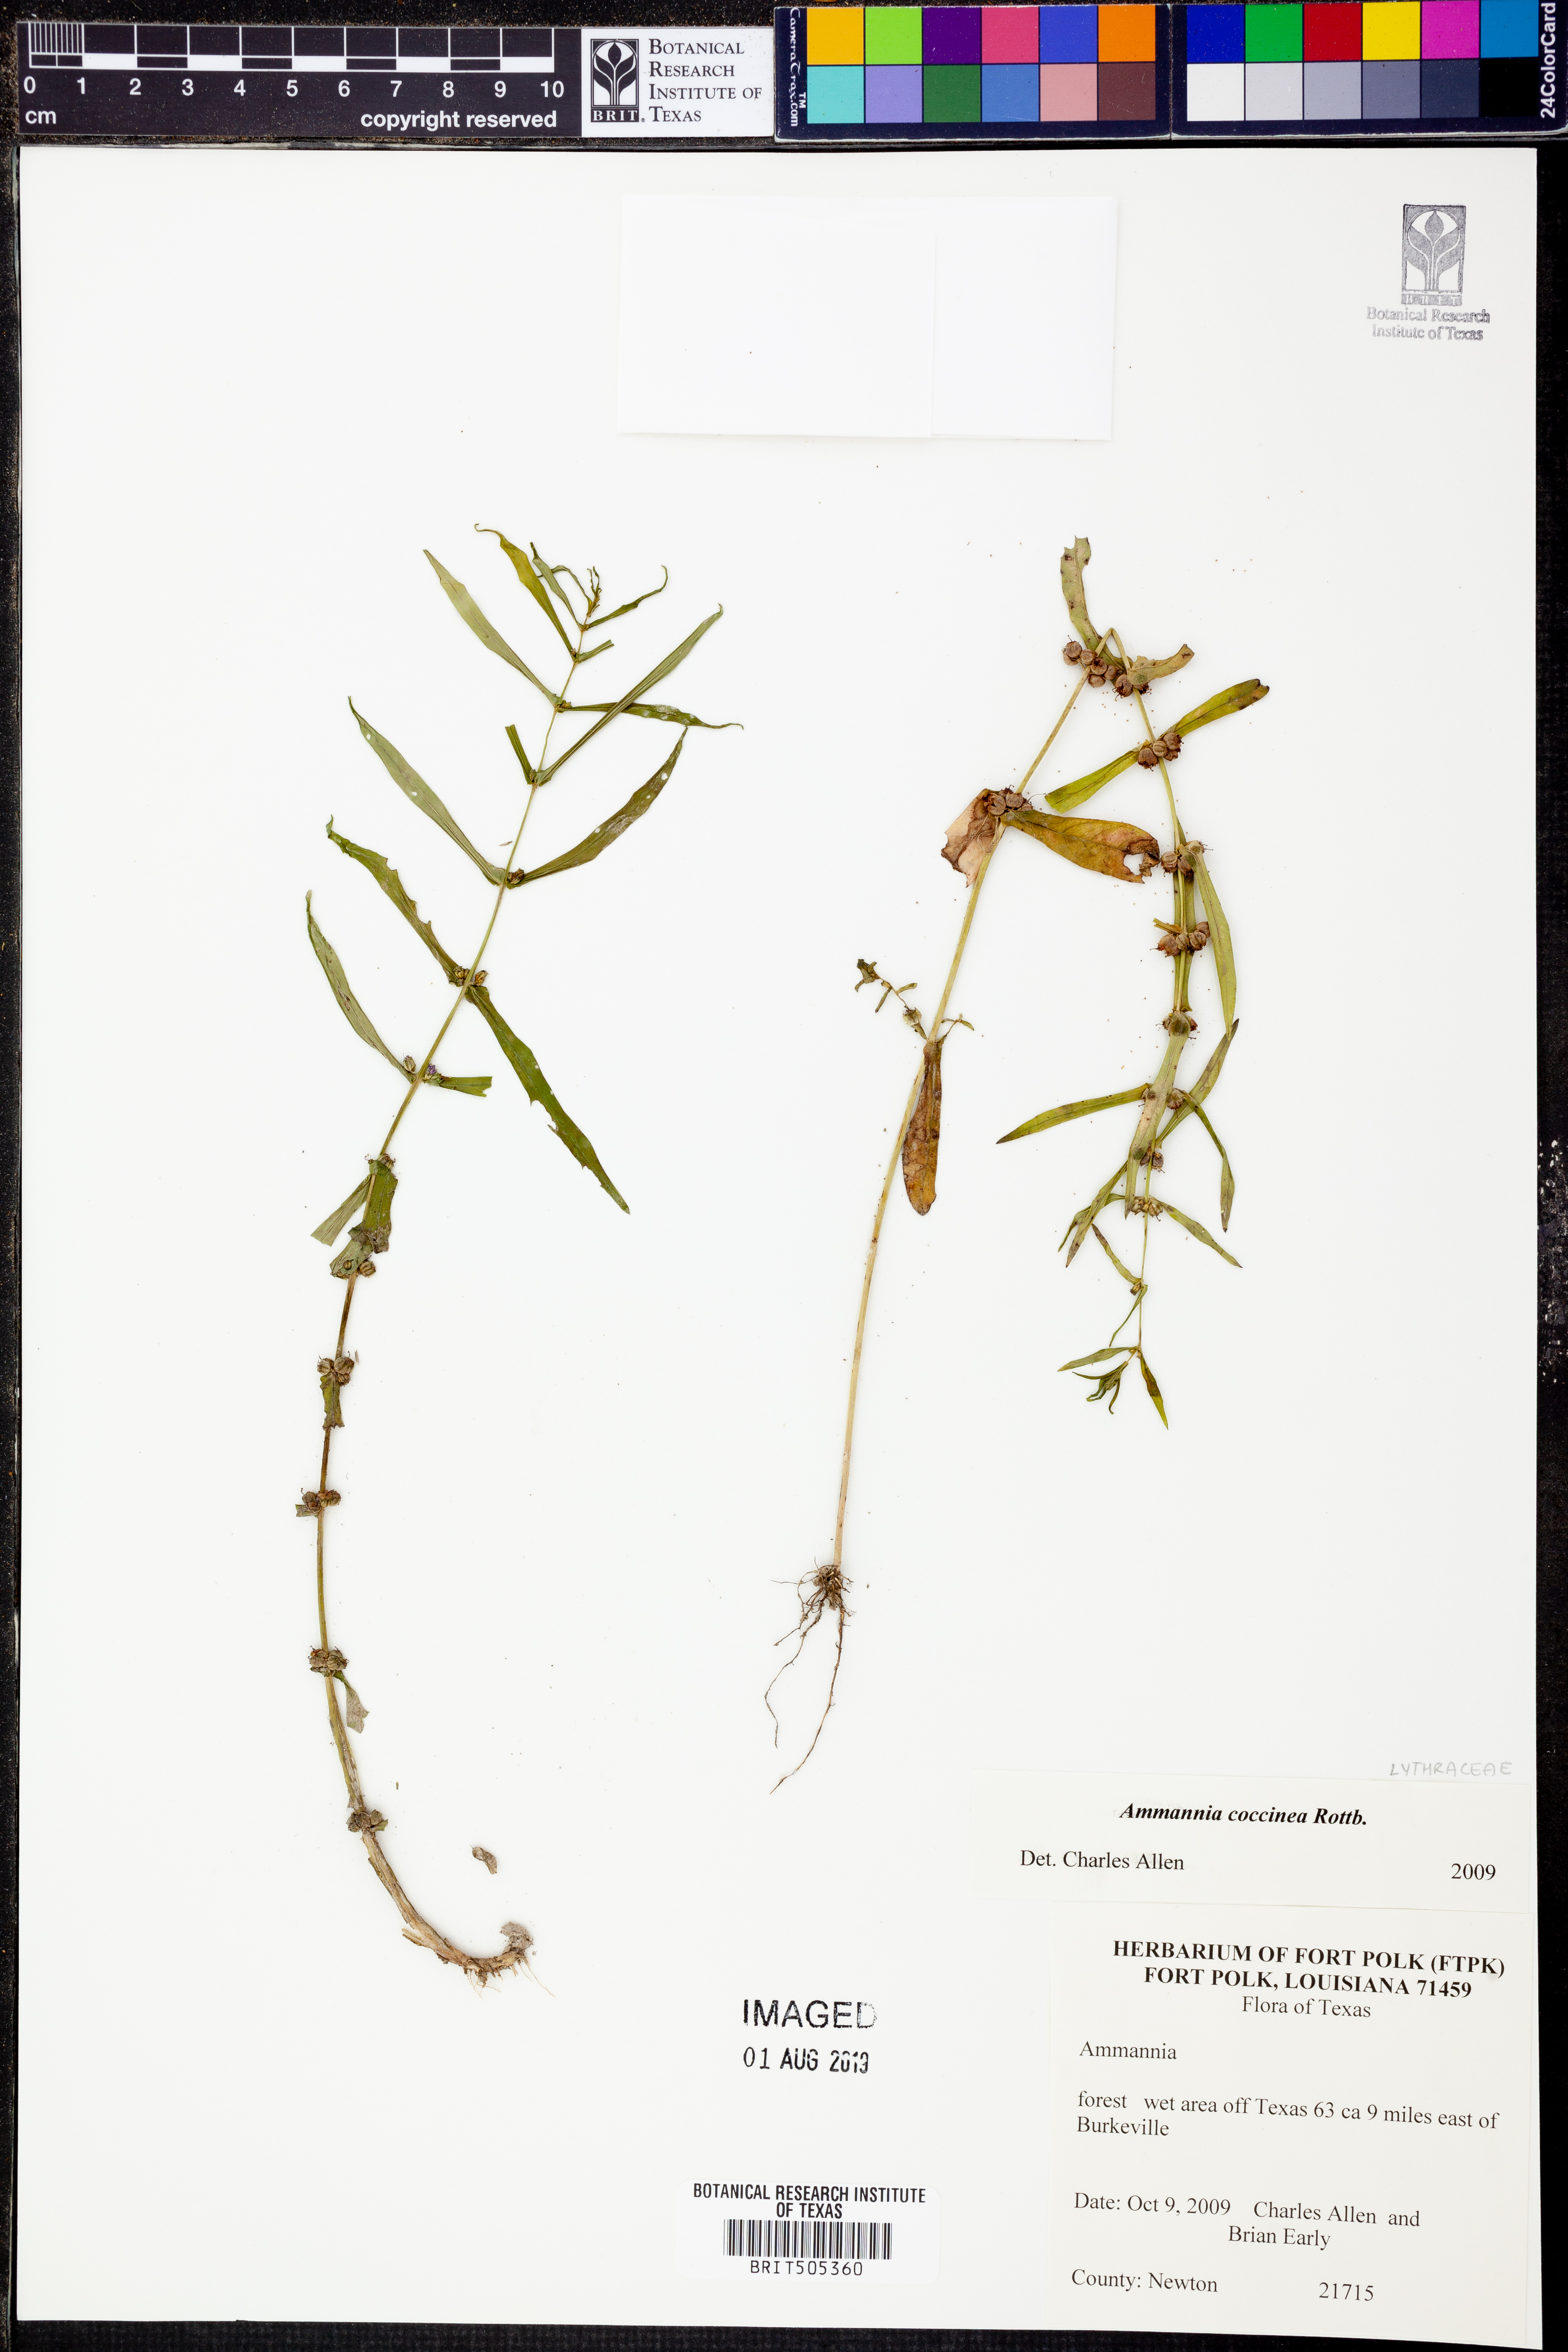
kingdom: Plantae
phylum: Tracheophyta
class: Magnoliopsida
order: Myrtales
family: Lythraceae
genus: Ammannia
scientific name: Ammannia coccinea
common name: Valley redstem
